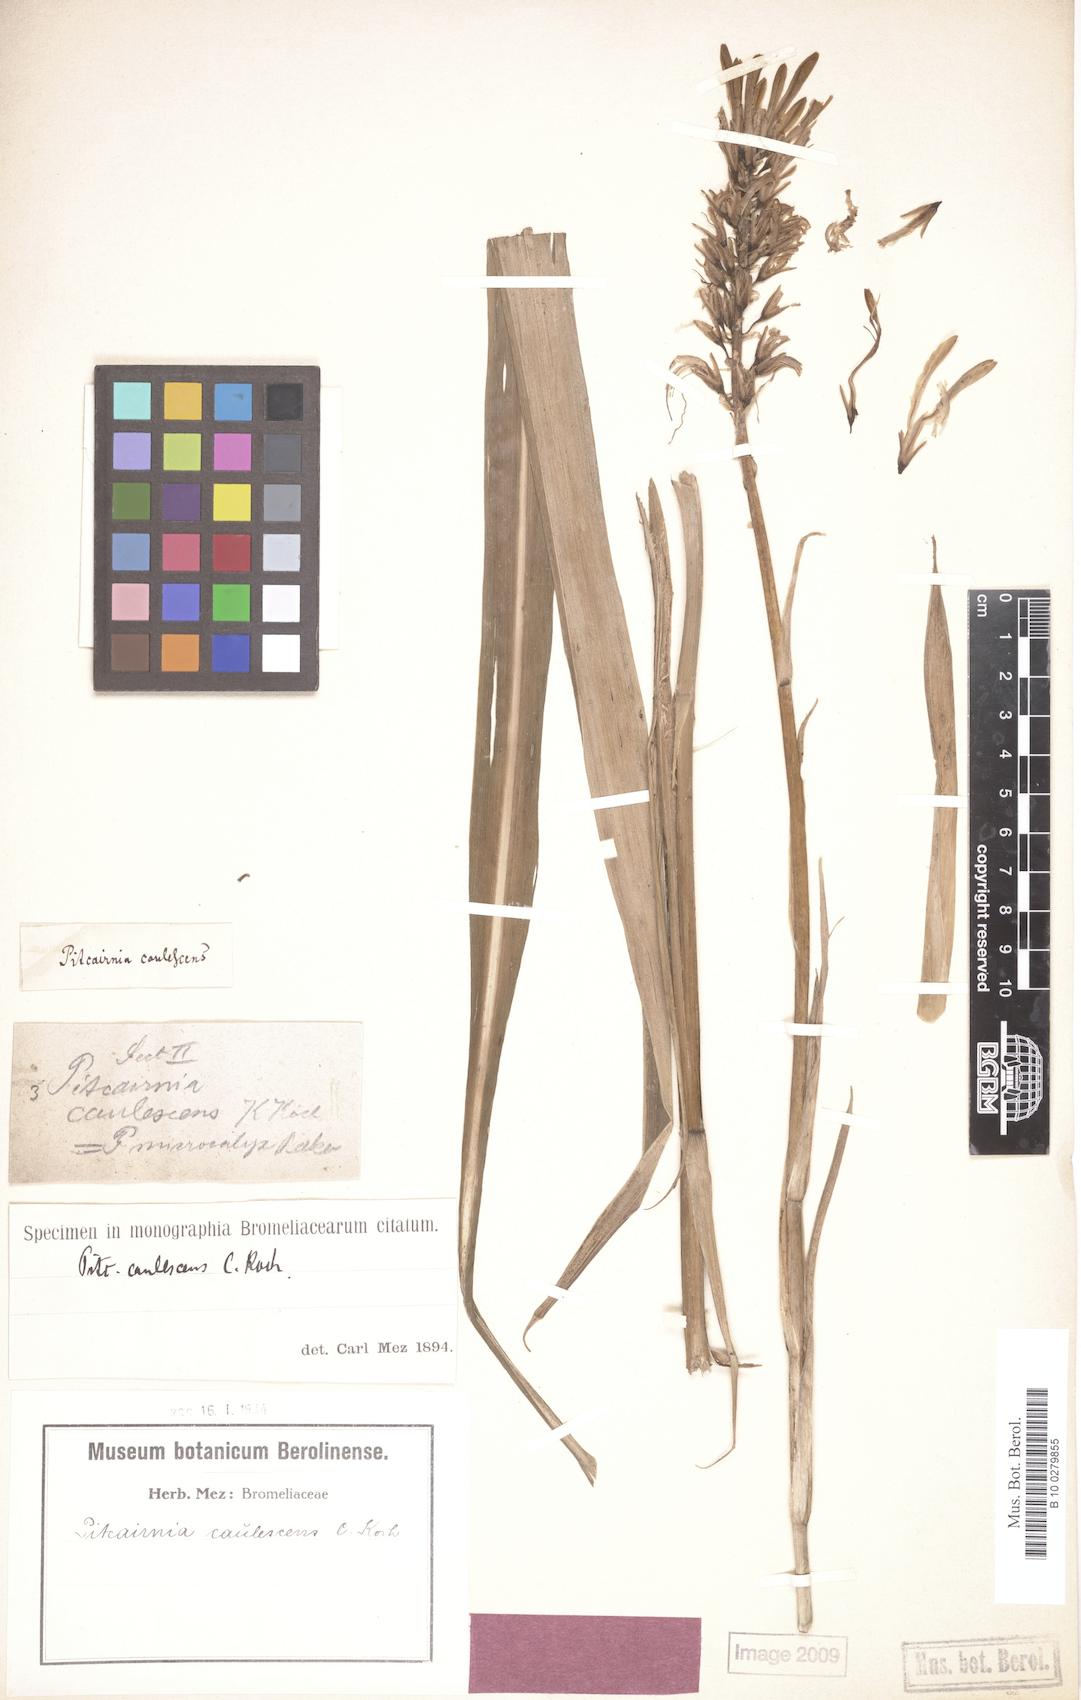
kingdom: Plantae
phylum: Tracheophyta
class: Liliopsida
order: Poales
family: Bromeliaceae
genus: Pitcairnia
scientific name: Pitcairnia caulescens
